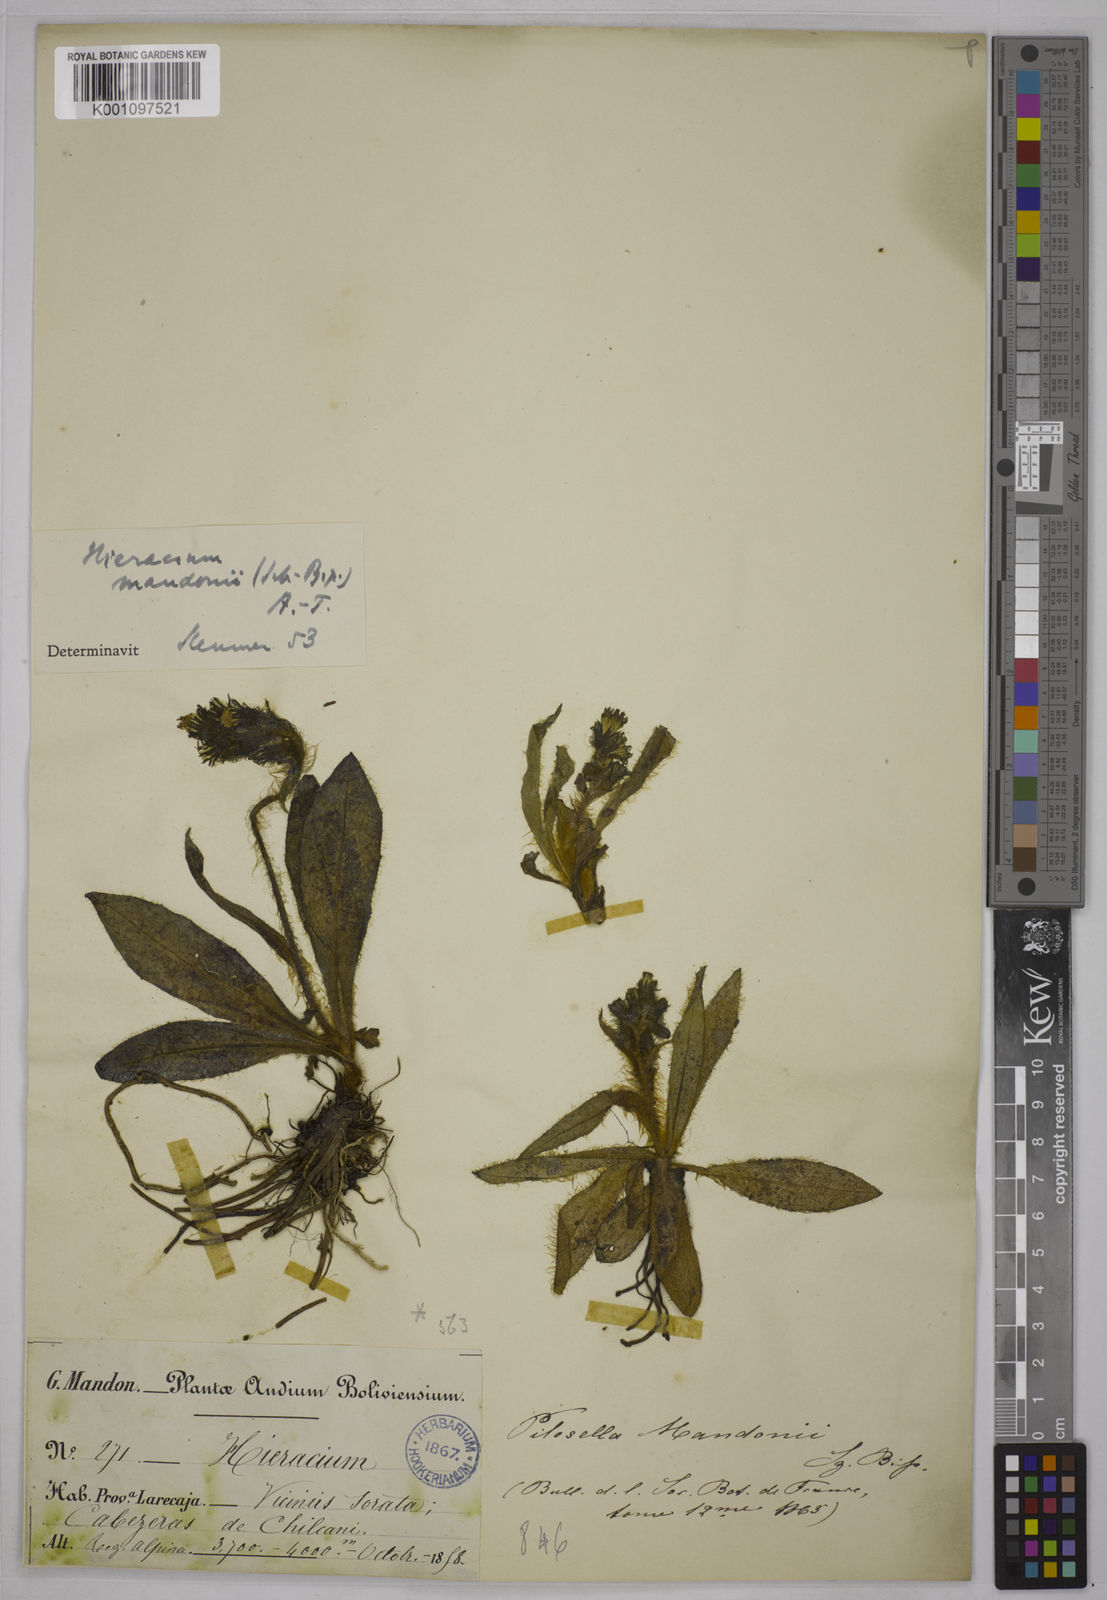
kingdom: Plantae
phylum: Tracheophyta
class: Magnoliopsida
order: Asterales
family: Asteraceae
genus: Hieracium
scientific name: Hieracium
